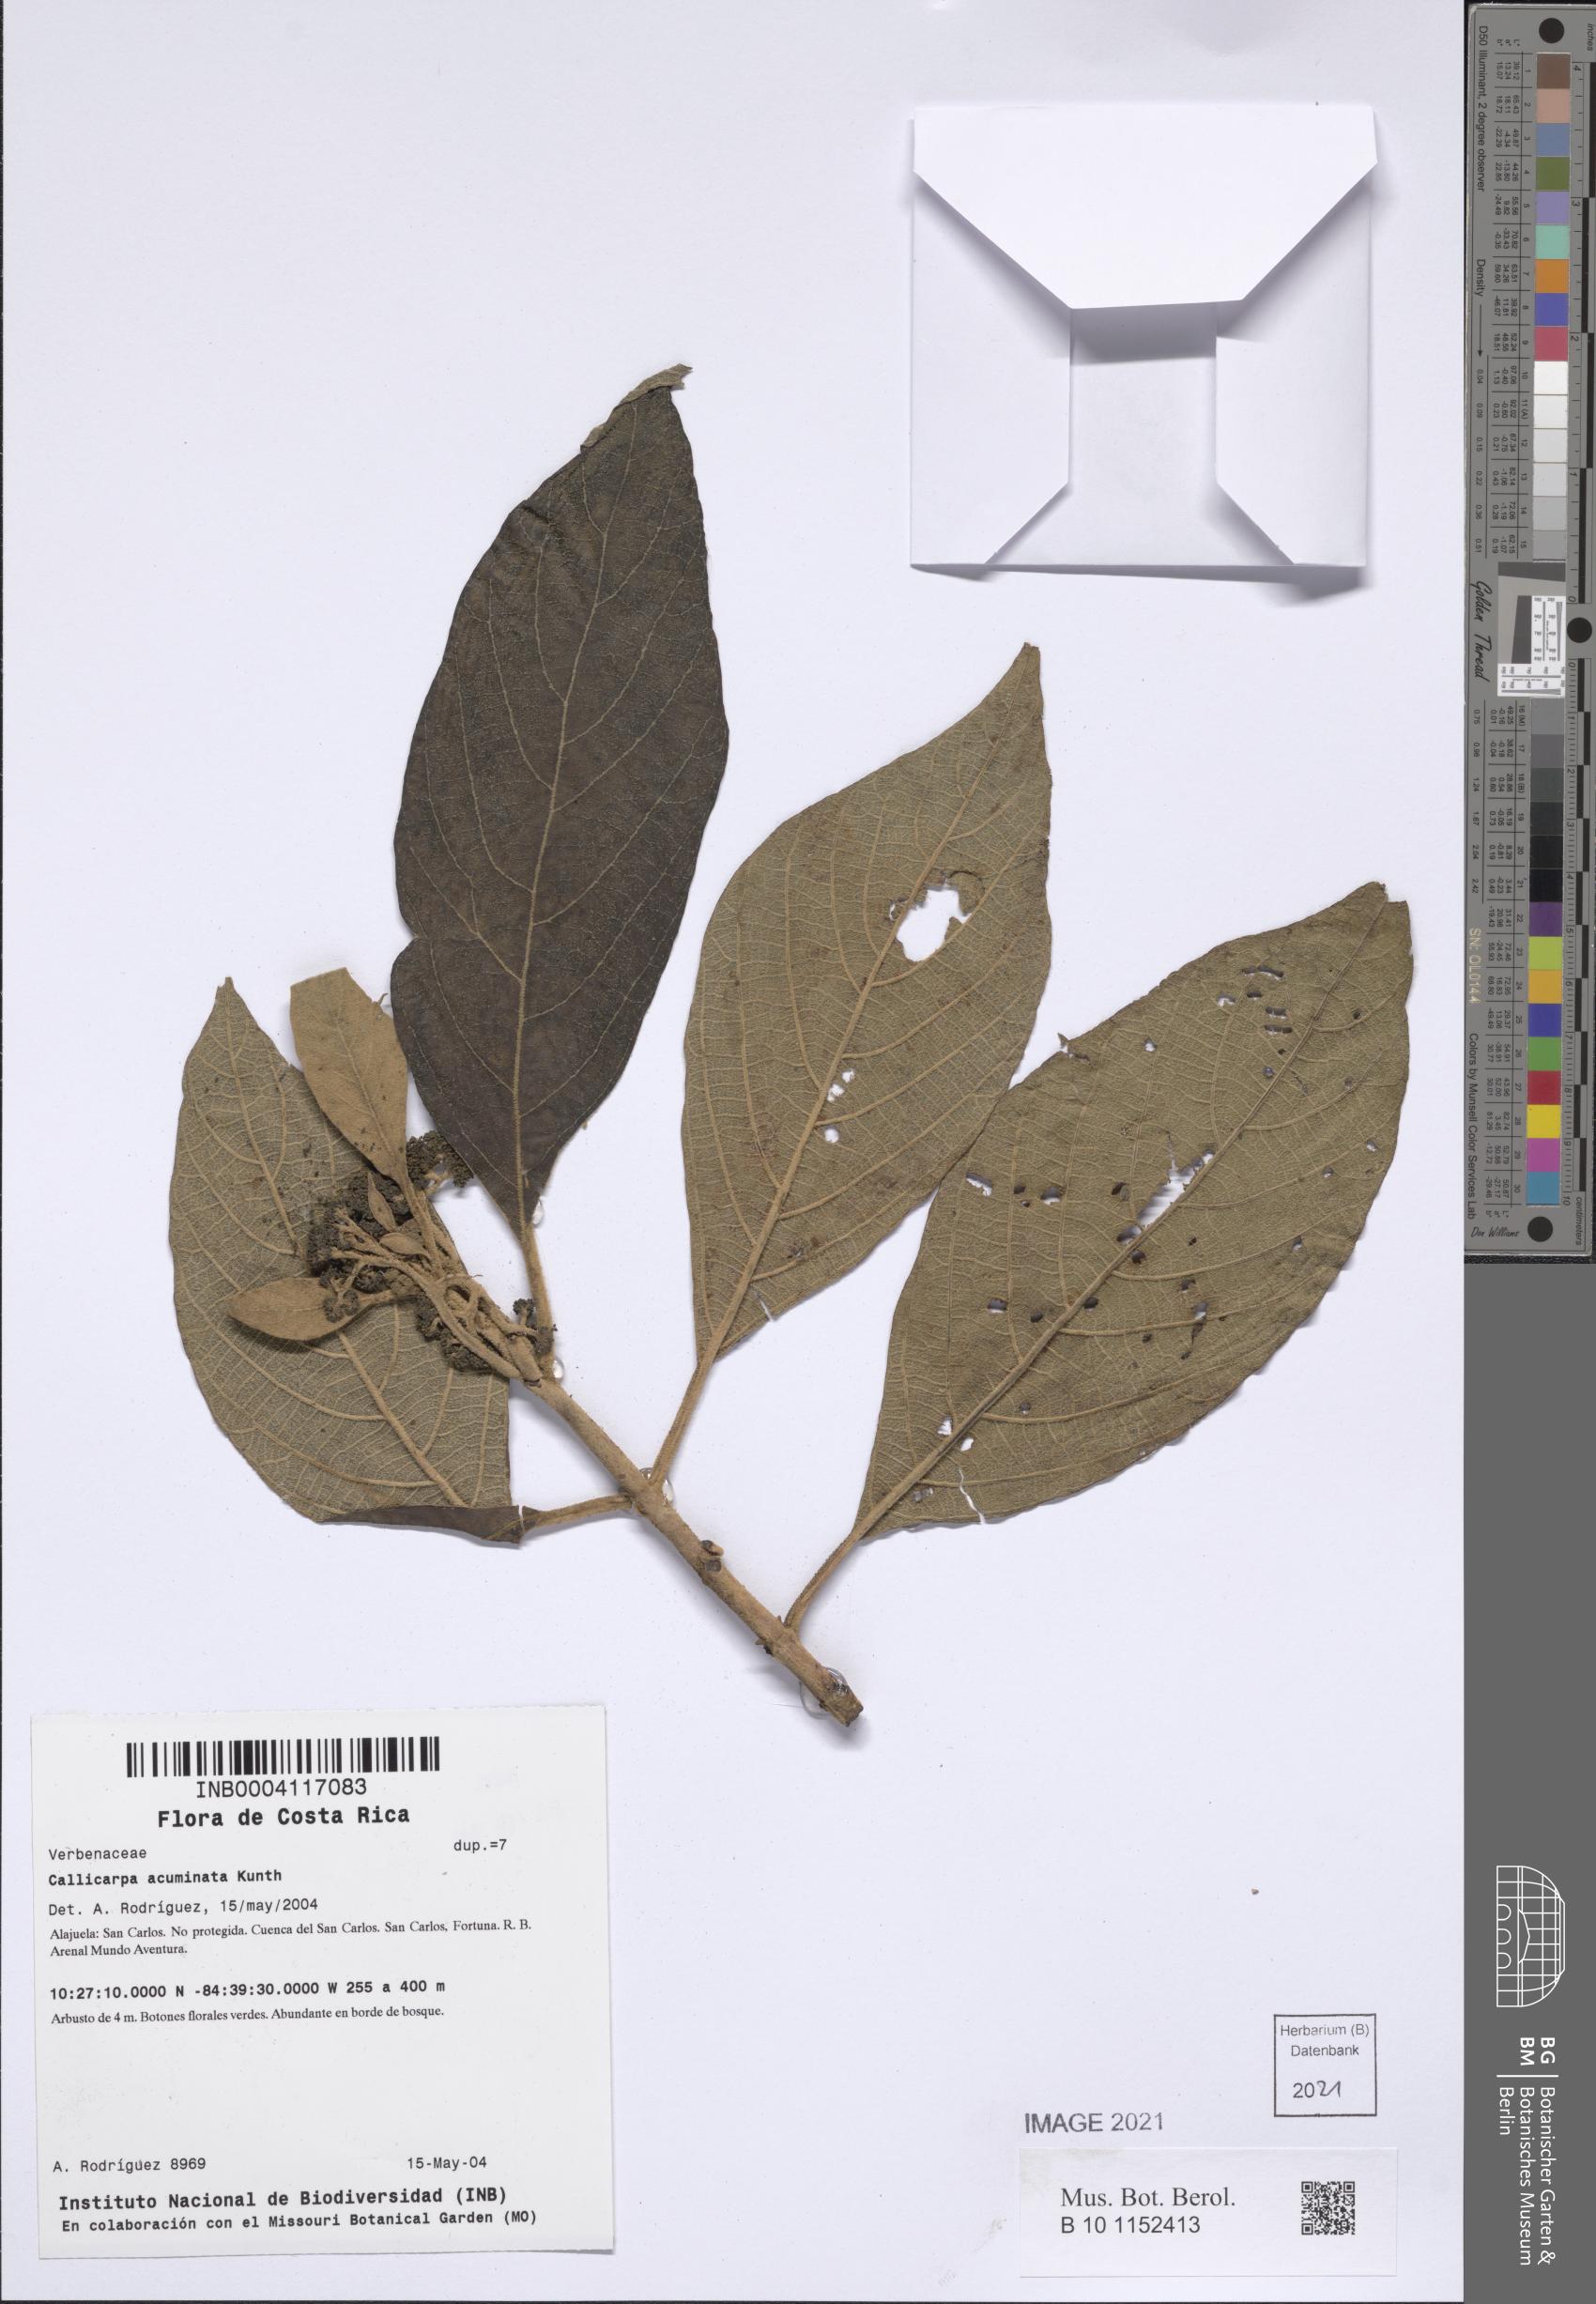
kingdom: Plantae
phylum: Tracheophyta
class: Magnoliopsida
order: Lamiales
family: Lamiaceae
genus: Callicarpa
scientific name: Callicarpa acuminata
